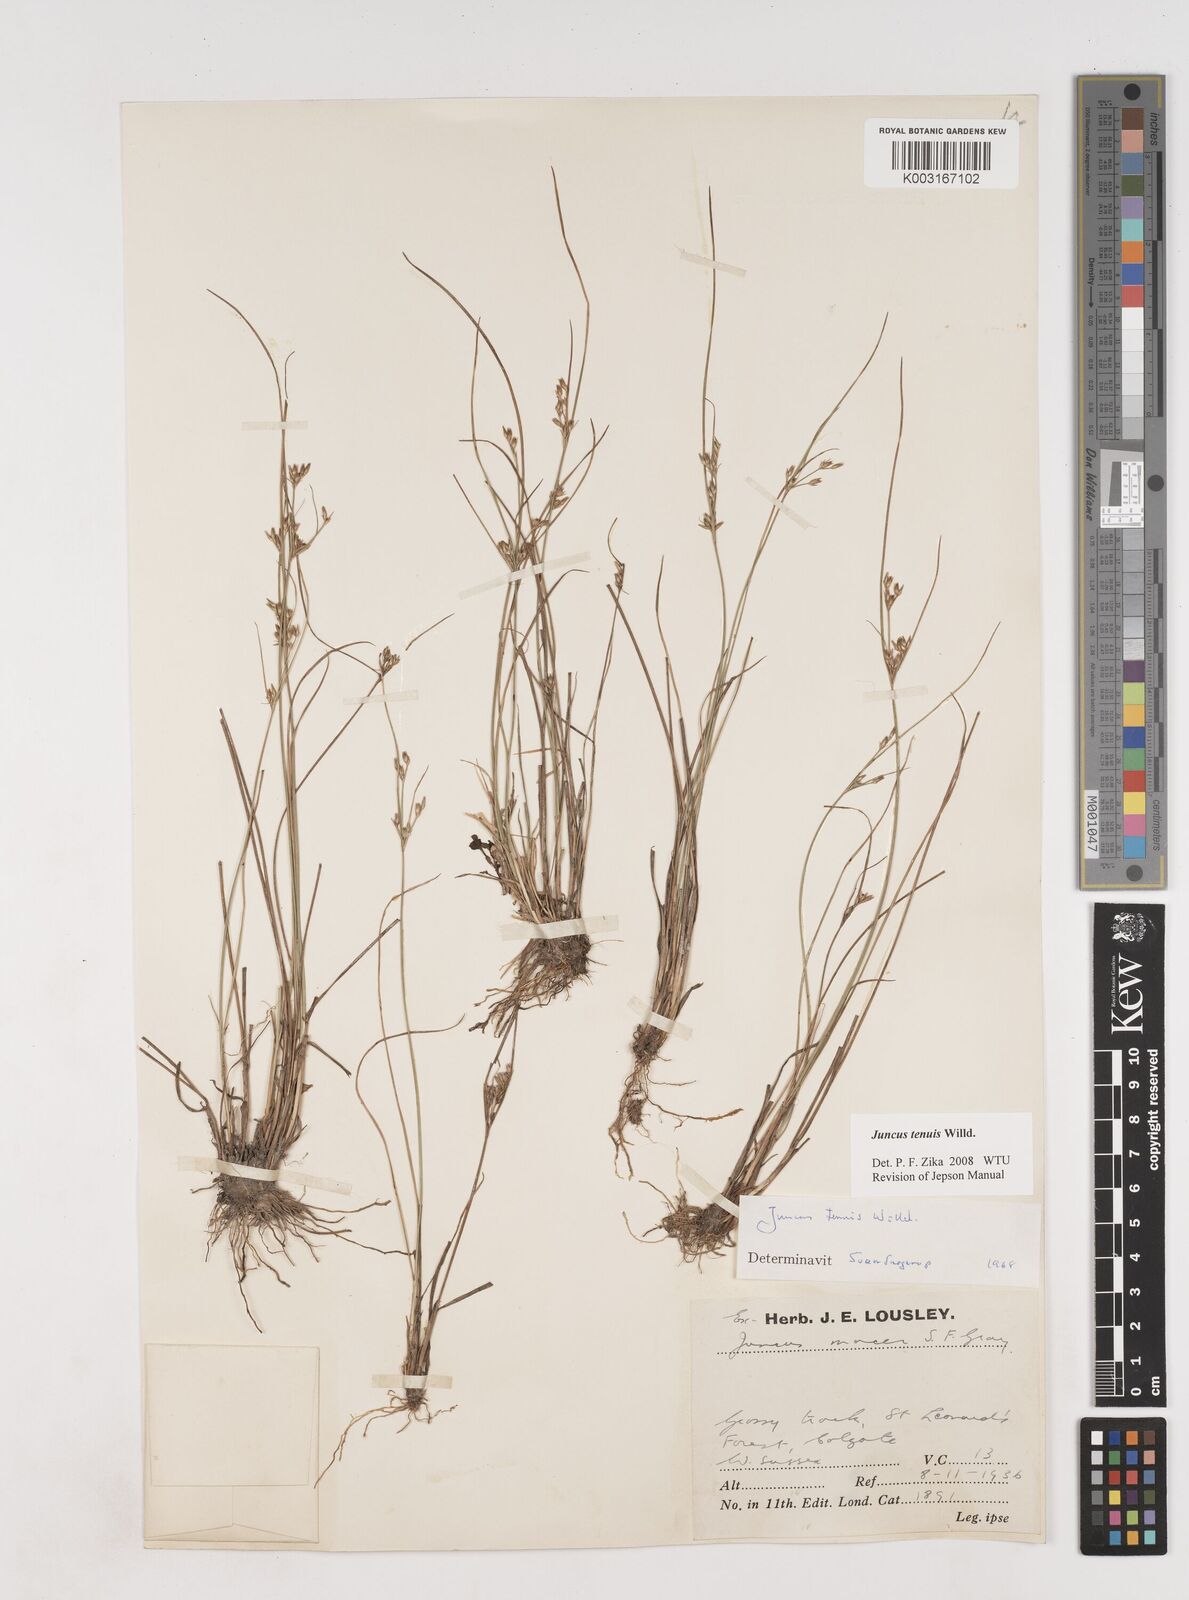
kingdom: Plantae
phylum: Tracheophyta
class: Liliopsida
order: Poales
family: Juncaceae
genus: Juncus
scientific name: Juncus tenuis
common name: Slender rush
